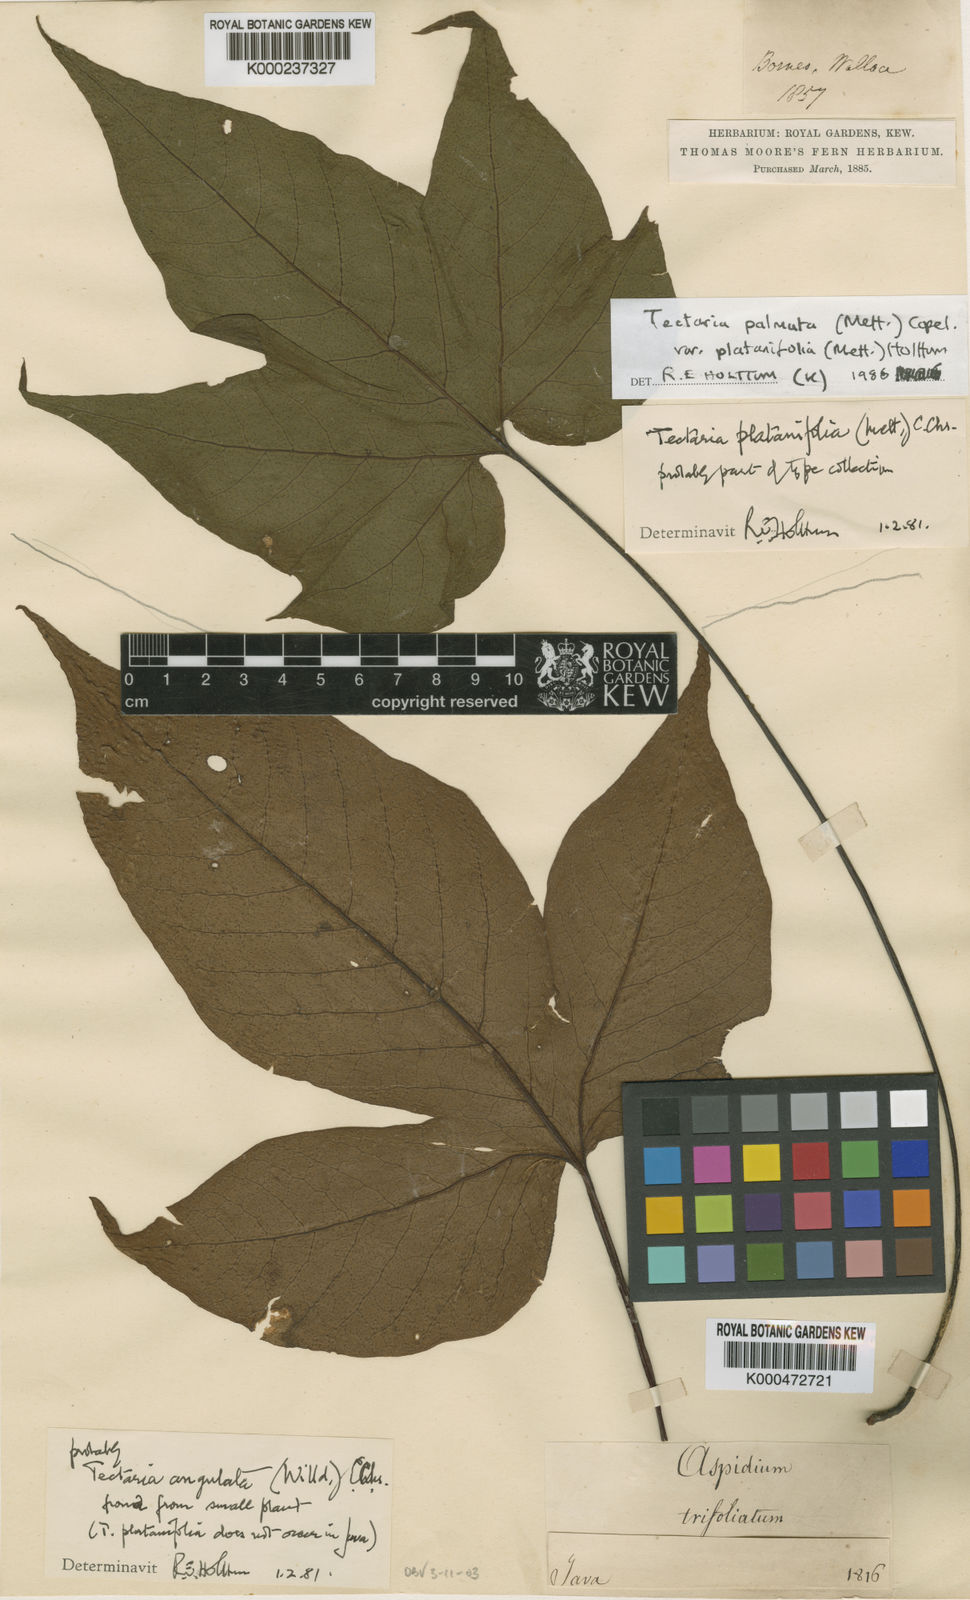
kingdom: Plantae
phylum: Tracheophyta
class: Polypodiopsida
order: Polypodiales
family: Tectariaceae
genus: Tectaria
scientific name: Tectaria palmata
